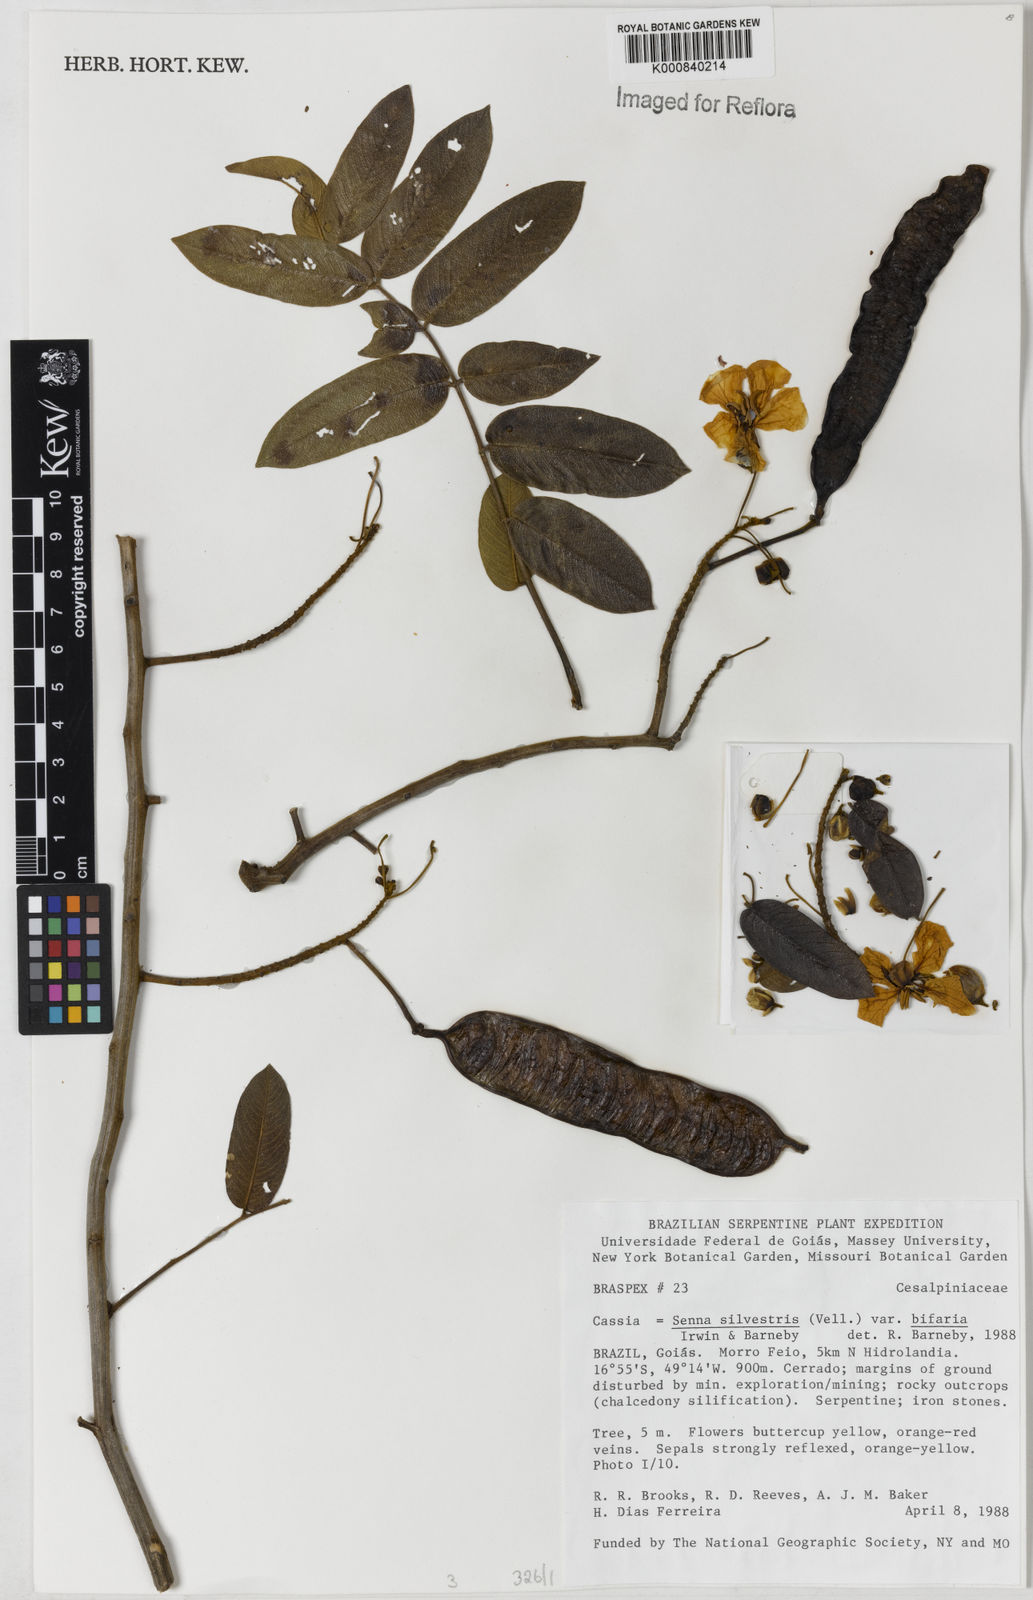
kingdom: Plantae
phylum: Tracheophyta
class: Magnoliopsida
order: Fabales
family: Fabaceae
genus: Senna
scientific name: Senna silvestris
